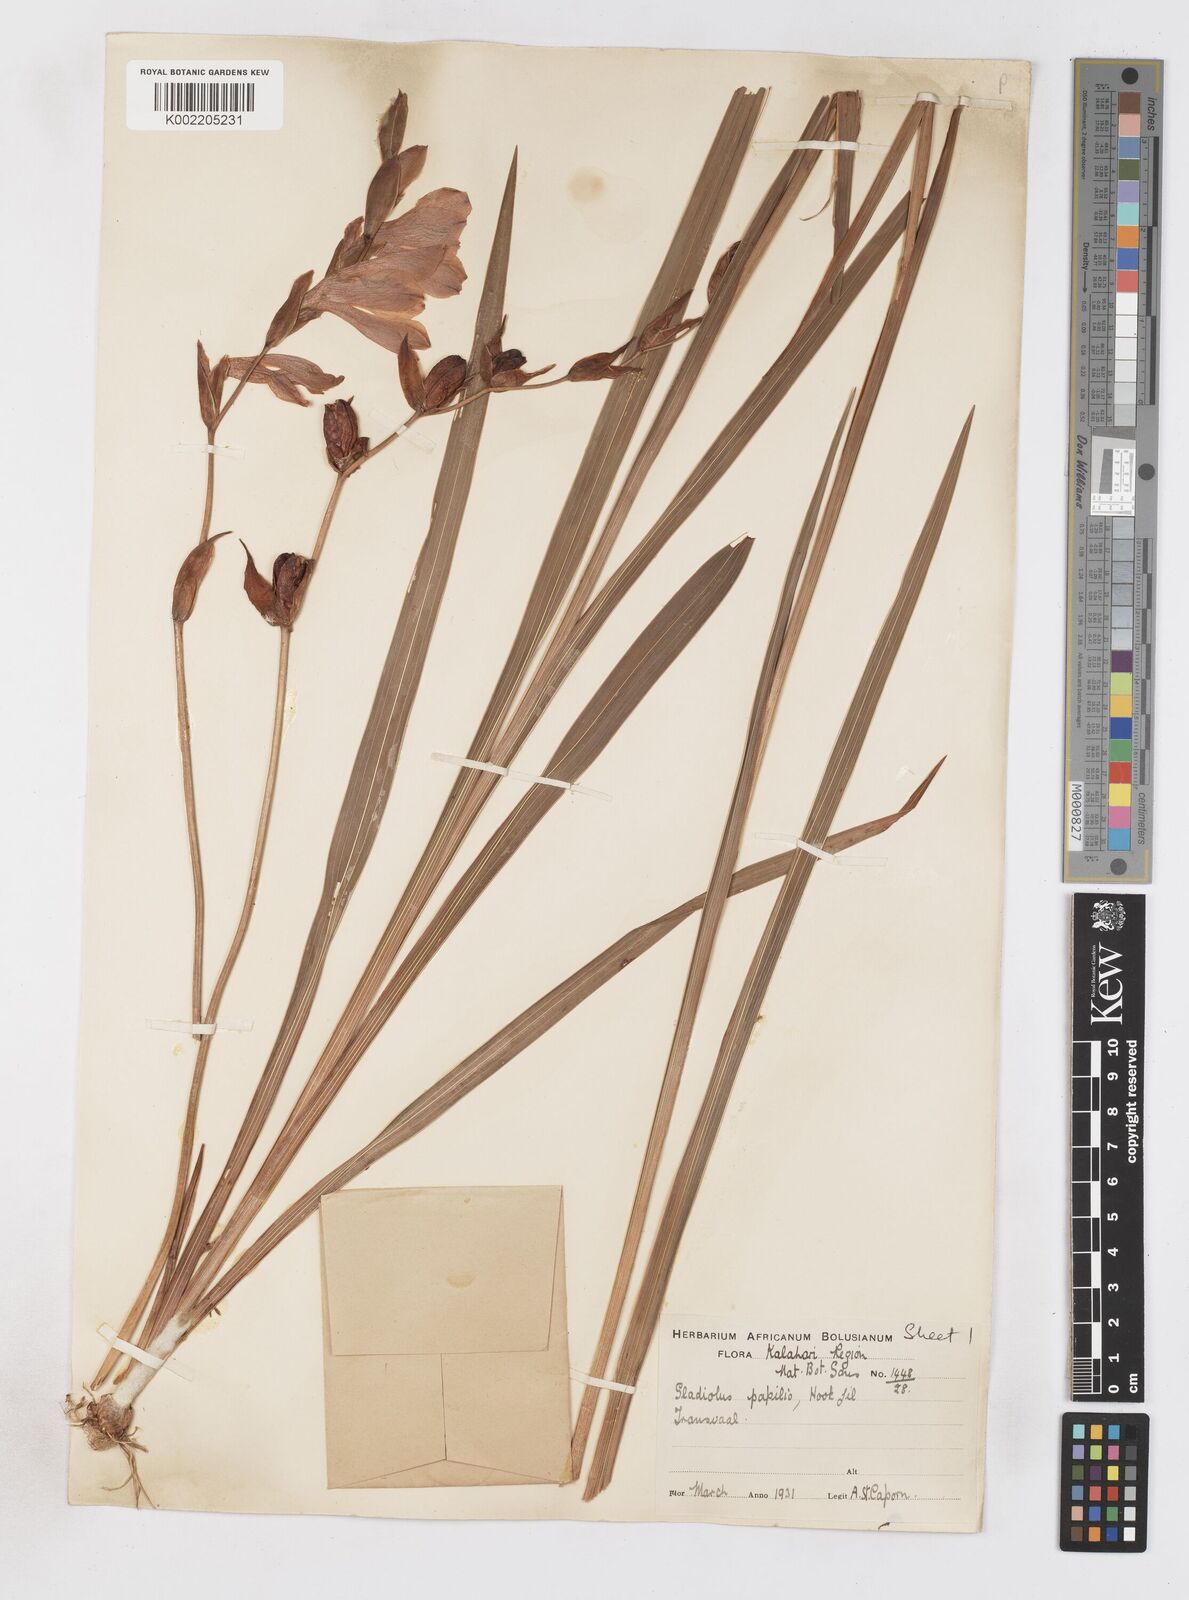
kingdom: Plantae
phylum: Tracheophyta
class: Liliopsida
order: Asparagales
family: Iridaceae
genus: Gladiolus
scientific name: Gladiolus papilio
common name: Goldblotch gladiolus
